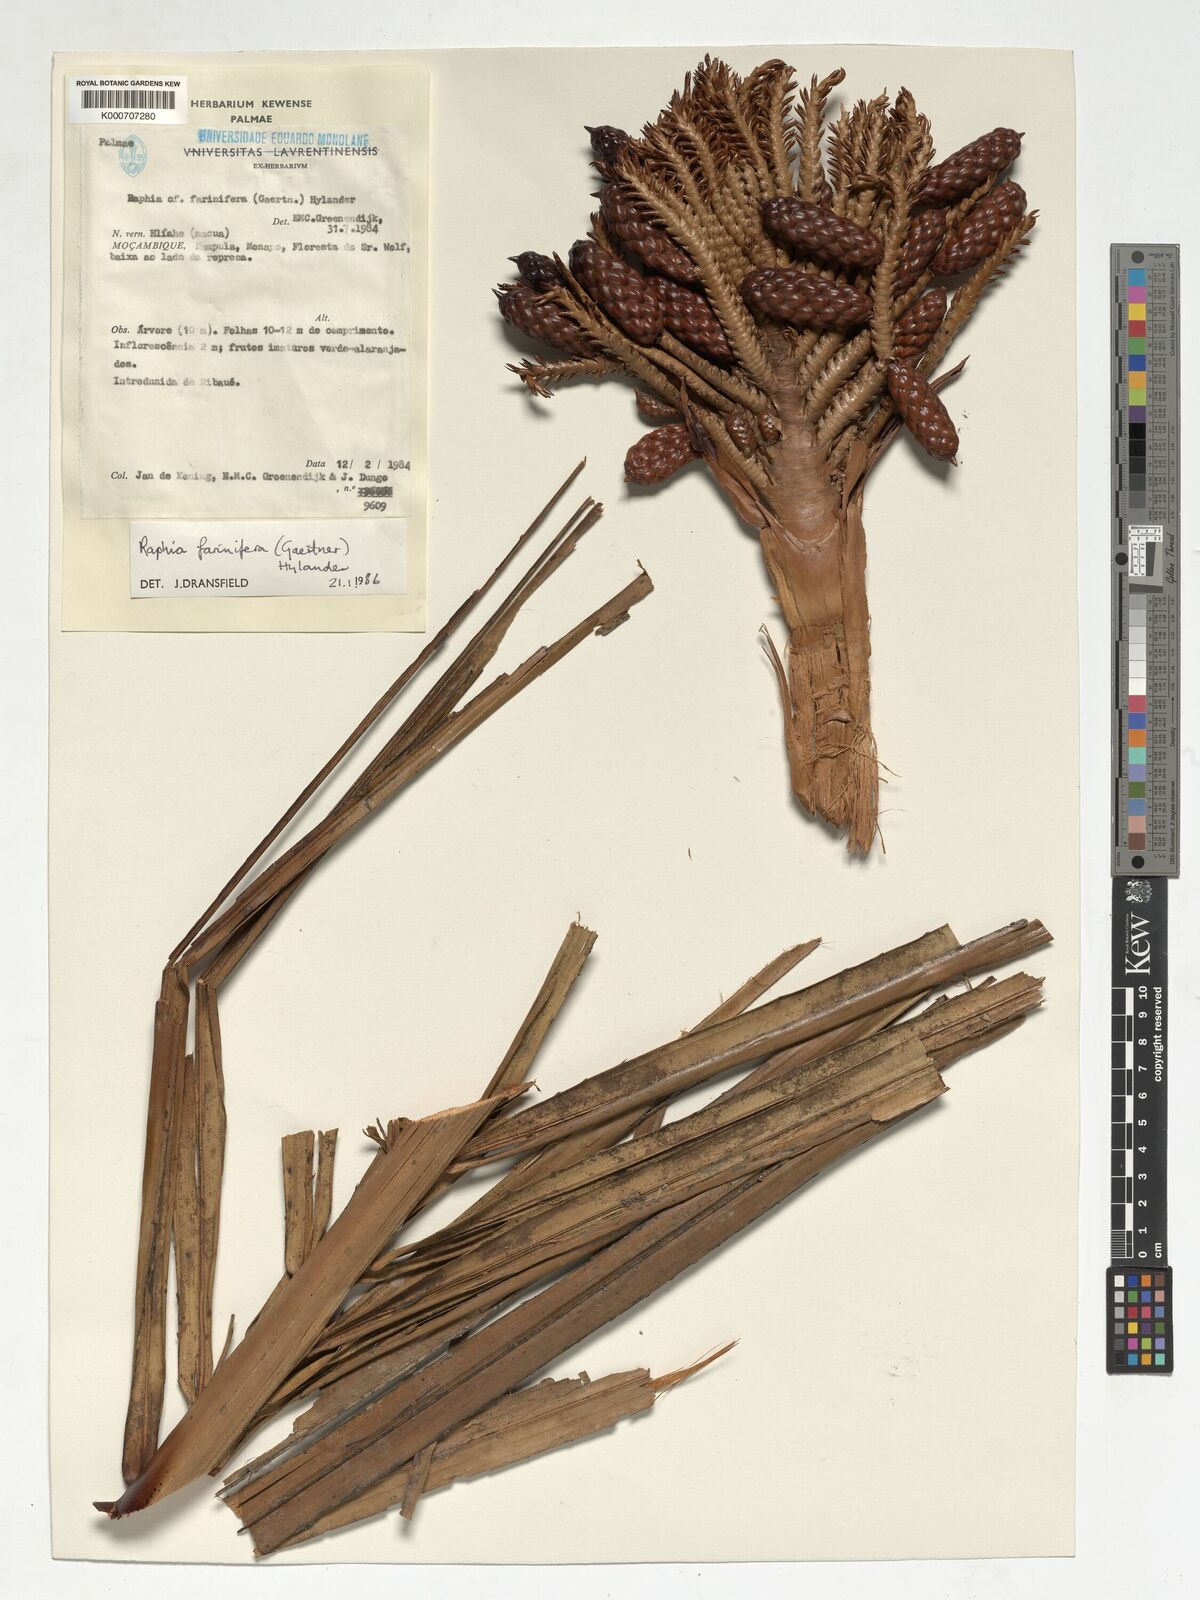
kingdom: Plantae
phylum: Tracheophyta
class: Liliopsida
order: Arecales
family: Arecaceae
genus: Raphia
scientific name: Raphia farinifera
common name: Raphia palm
